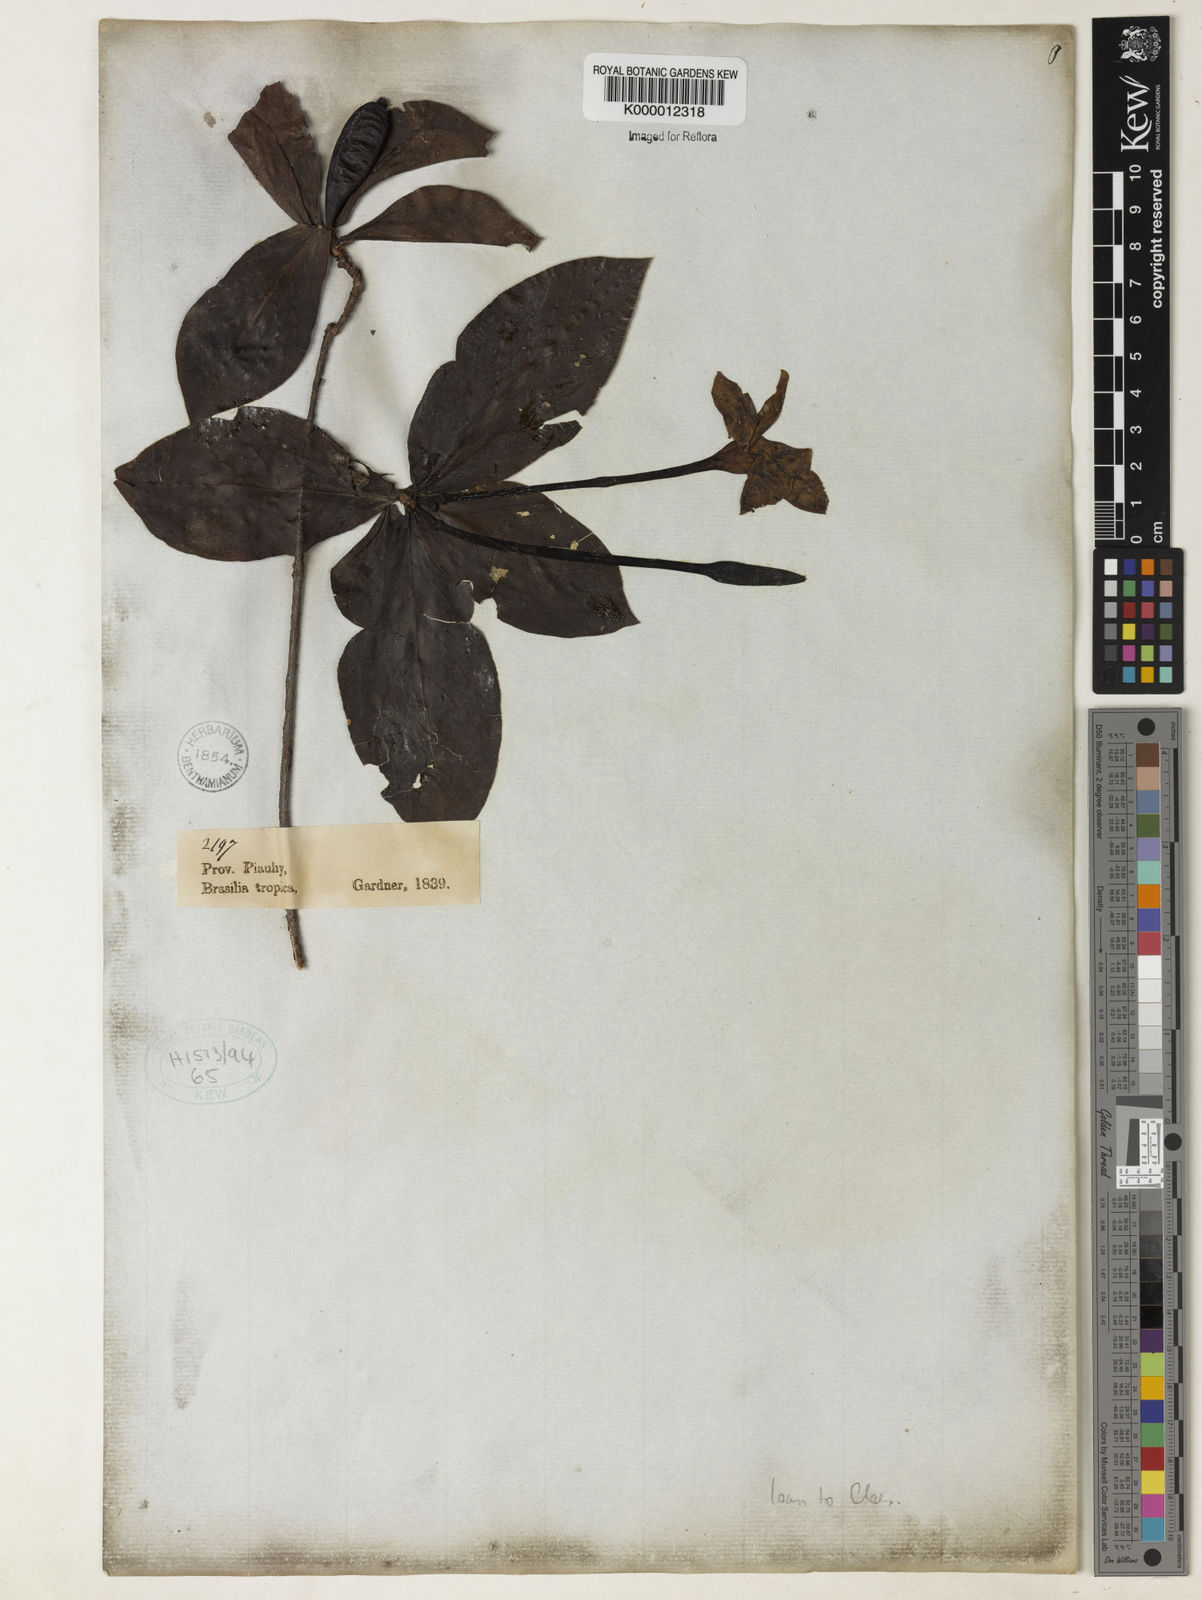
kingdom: Plantae
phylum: Tracheophyta
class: Magnoliopsida
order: Gentianales
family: Rubiaceae
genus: Tocoyena
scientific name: Tocoyena
